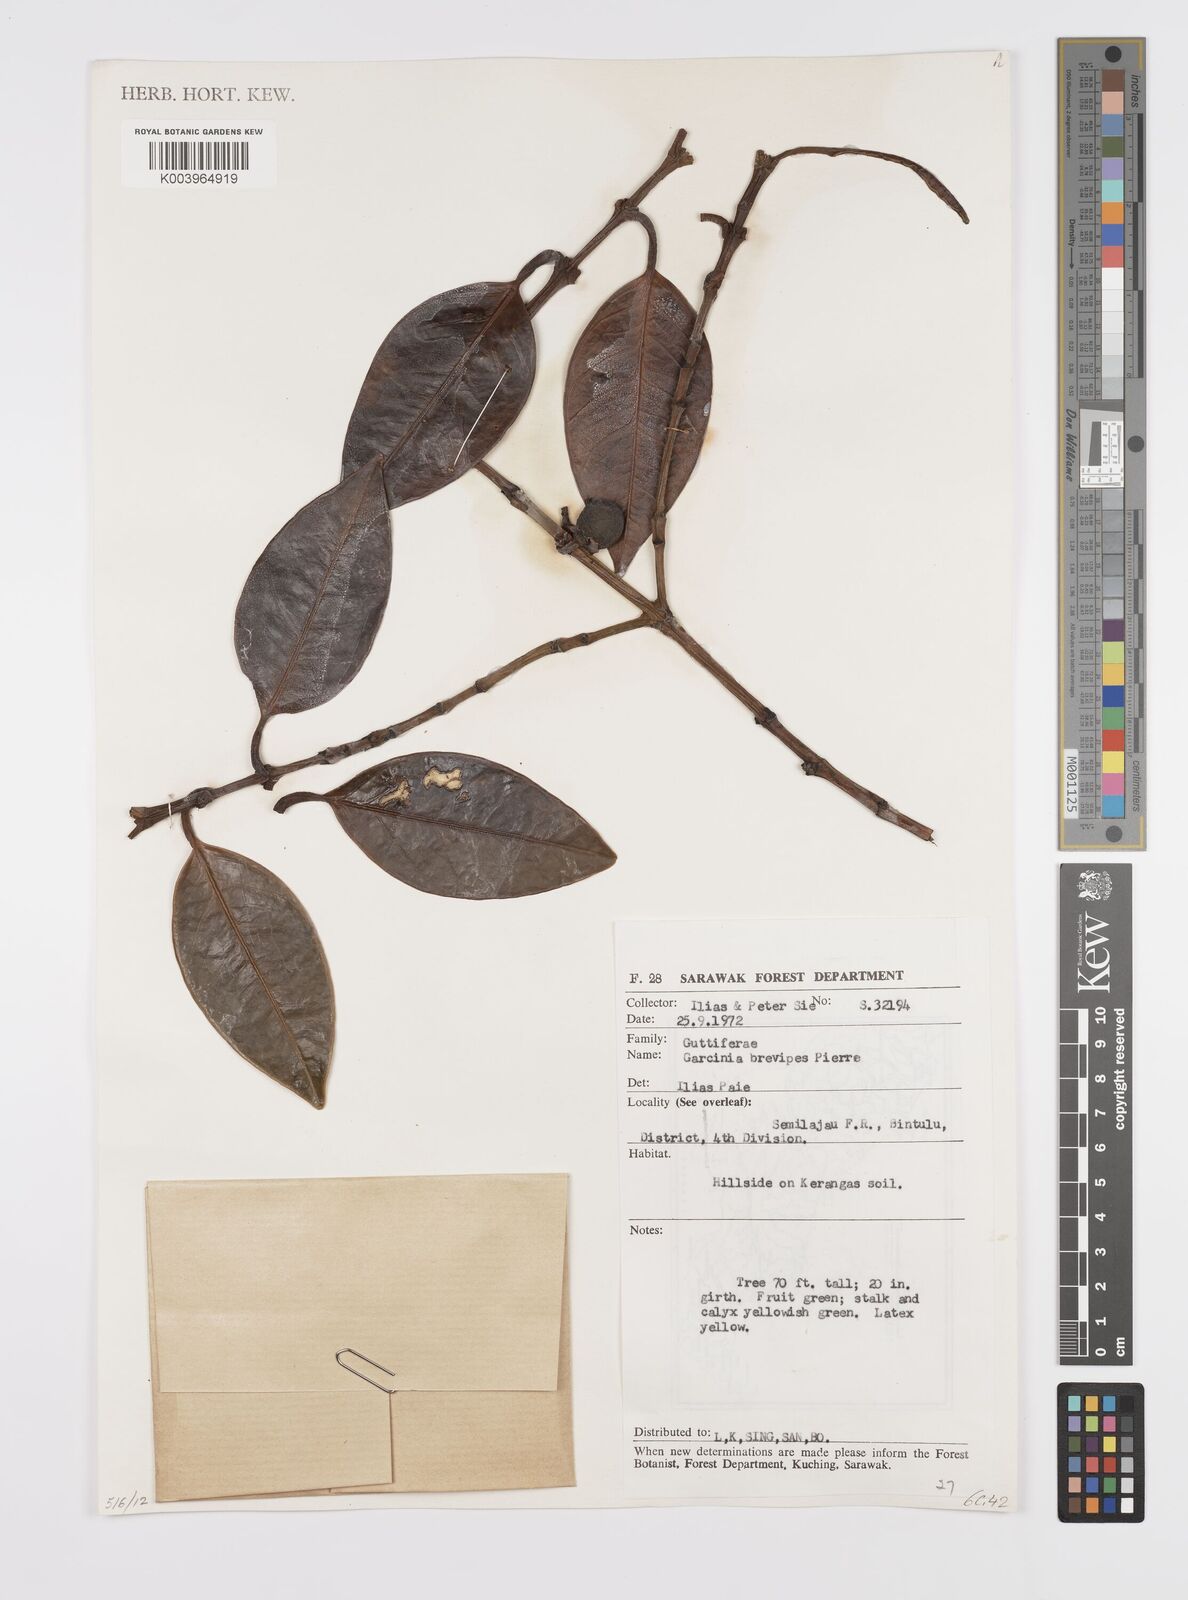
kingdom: Plantae
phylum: Tracheophyta
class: Magnoliopsida
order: Malpighiales
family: Clusiaceae
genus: Garcinia
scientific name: Garcinia brevipes
